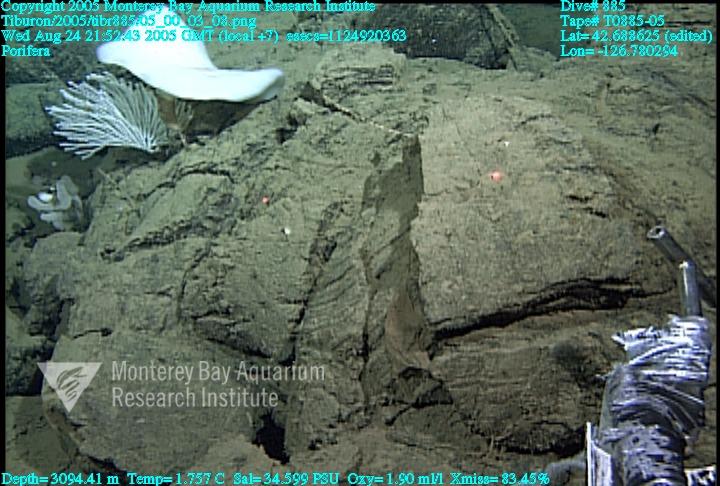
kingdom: Animalia
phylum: Porifera
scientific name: Porifera
